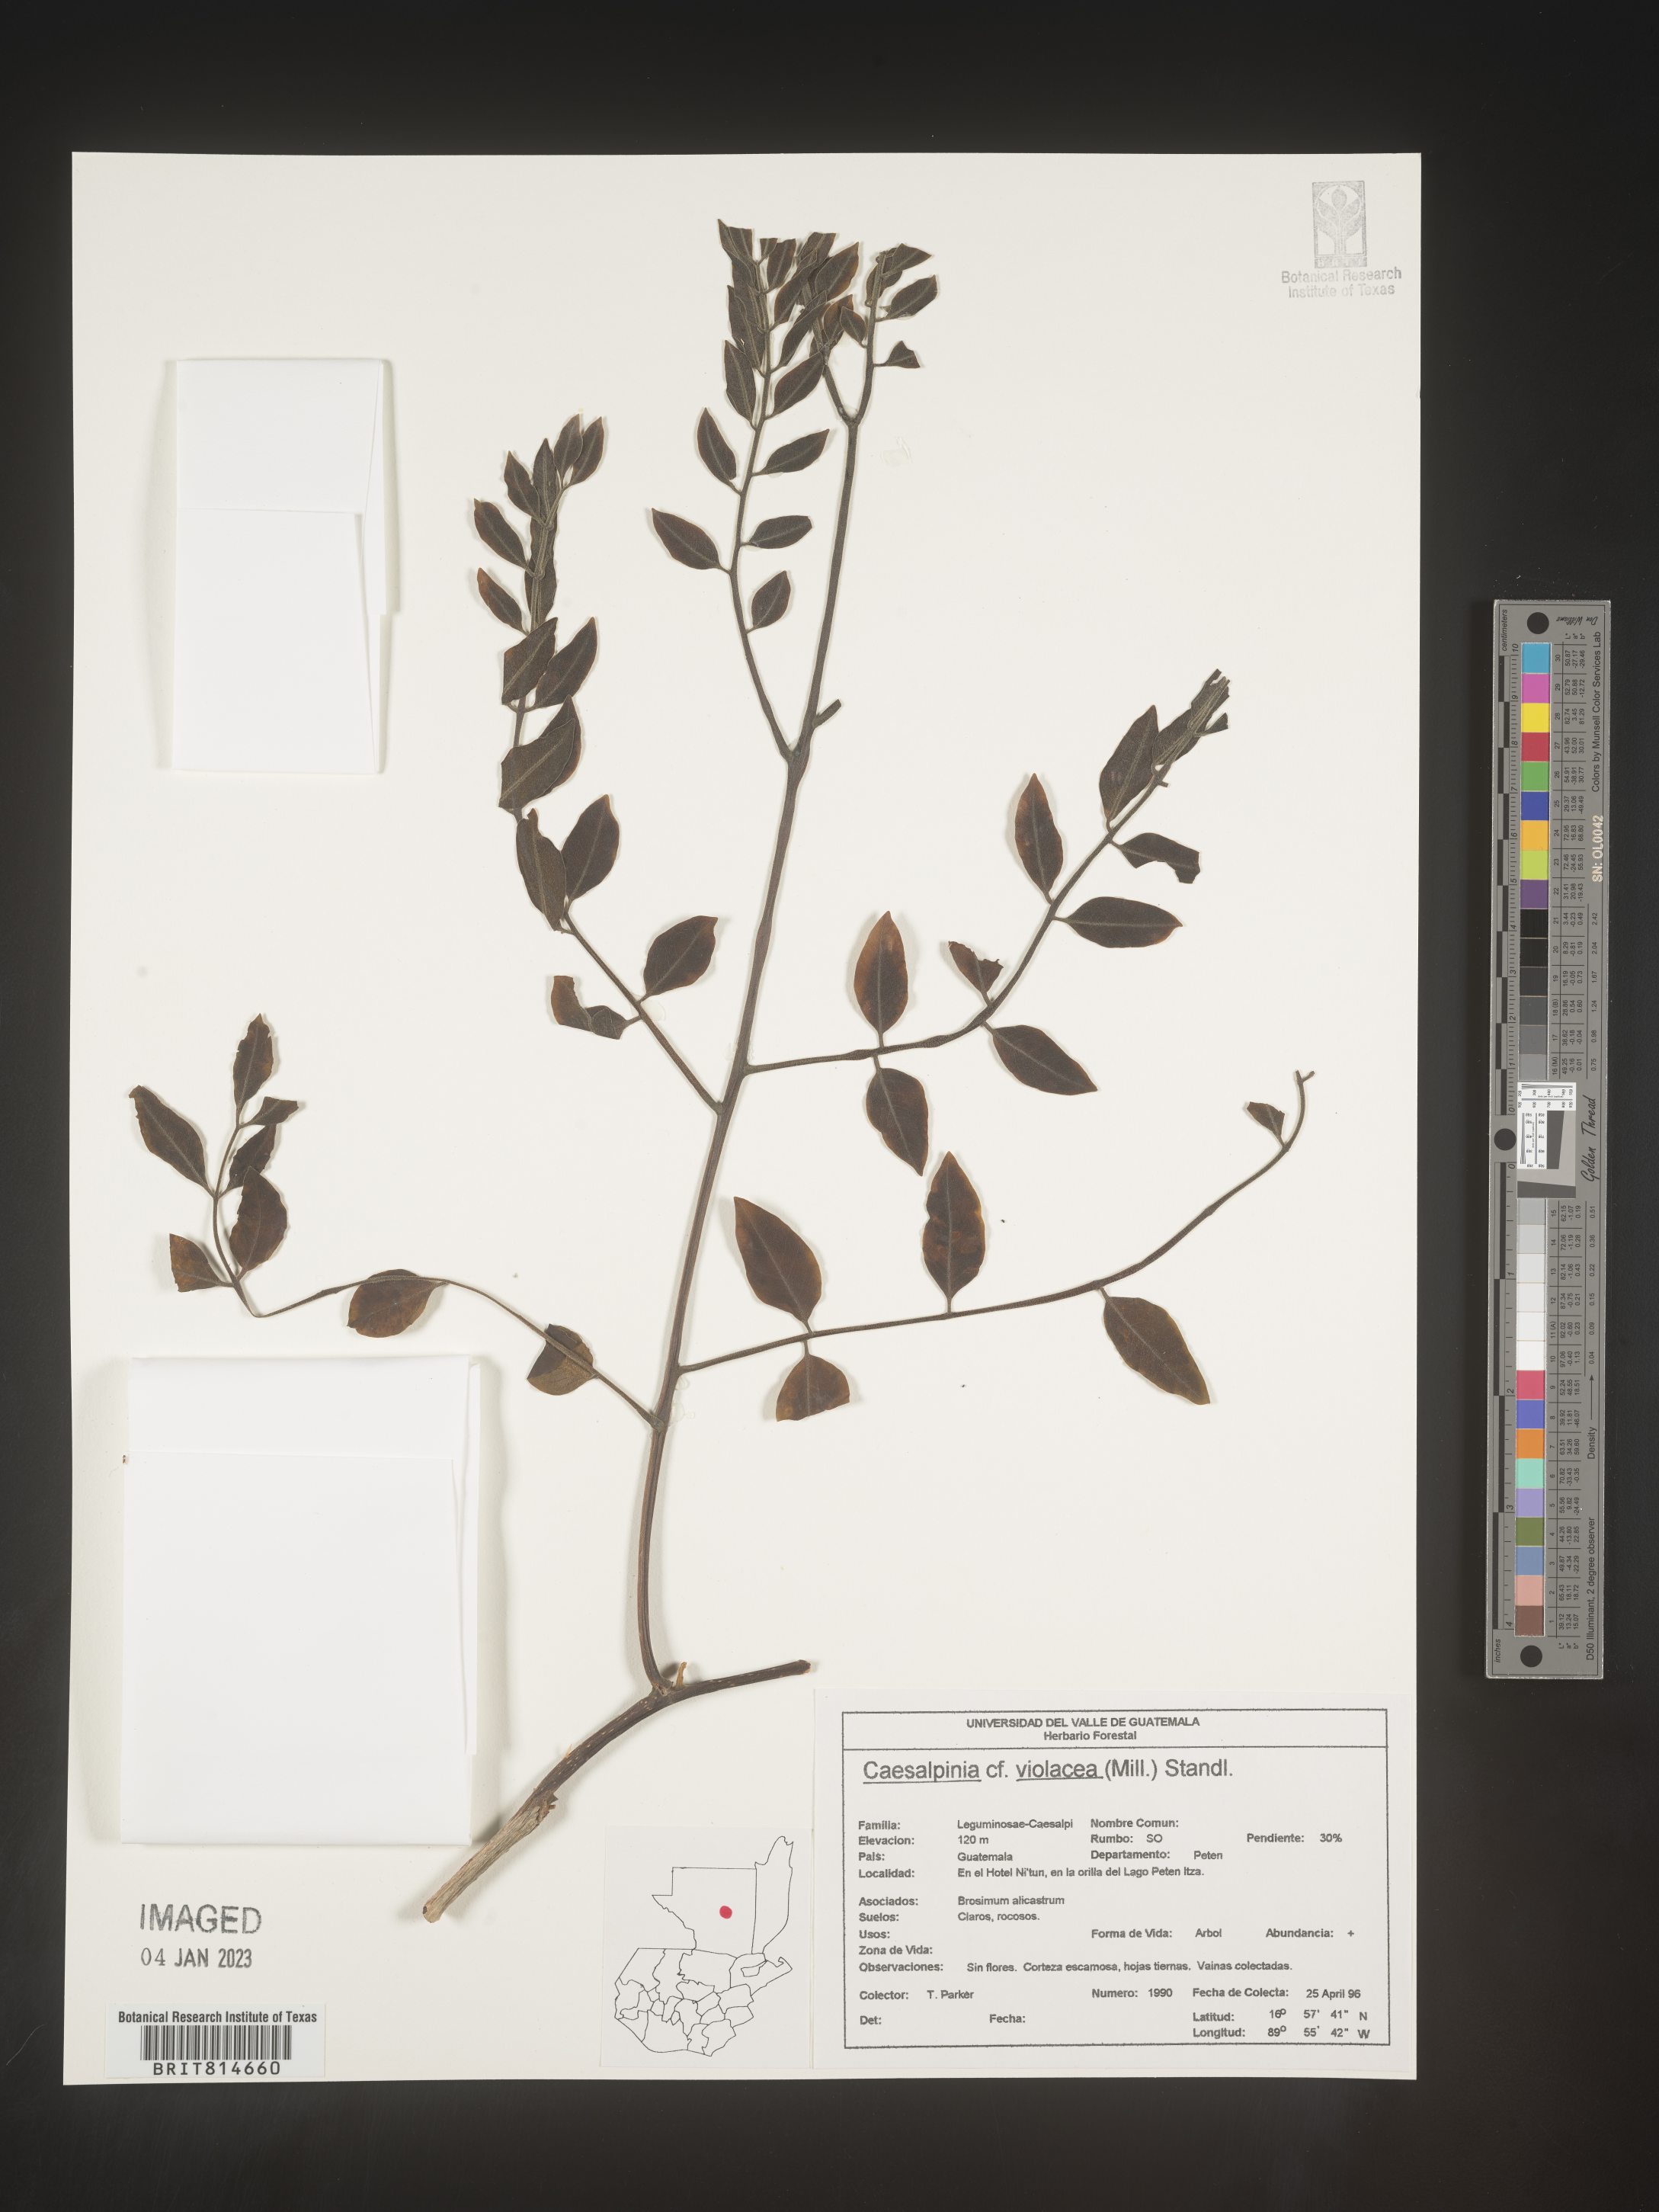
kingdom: Plantae
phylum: Tracheophyta
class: Magnoliopsida
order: Fabales
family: Fabaceae
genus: Caesalpinia
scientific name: Caesalpinia
